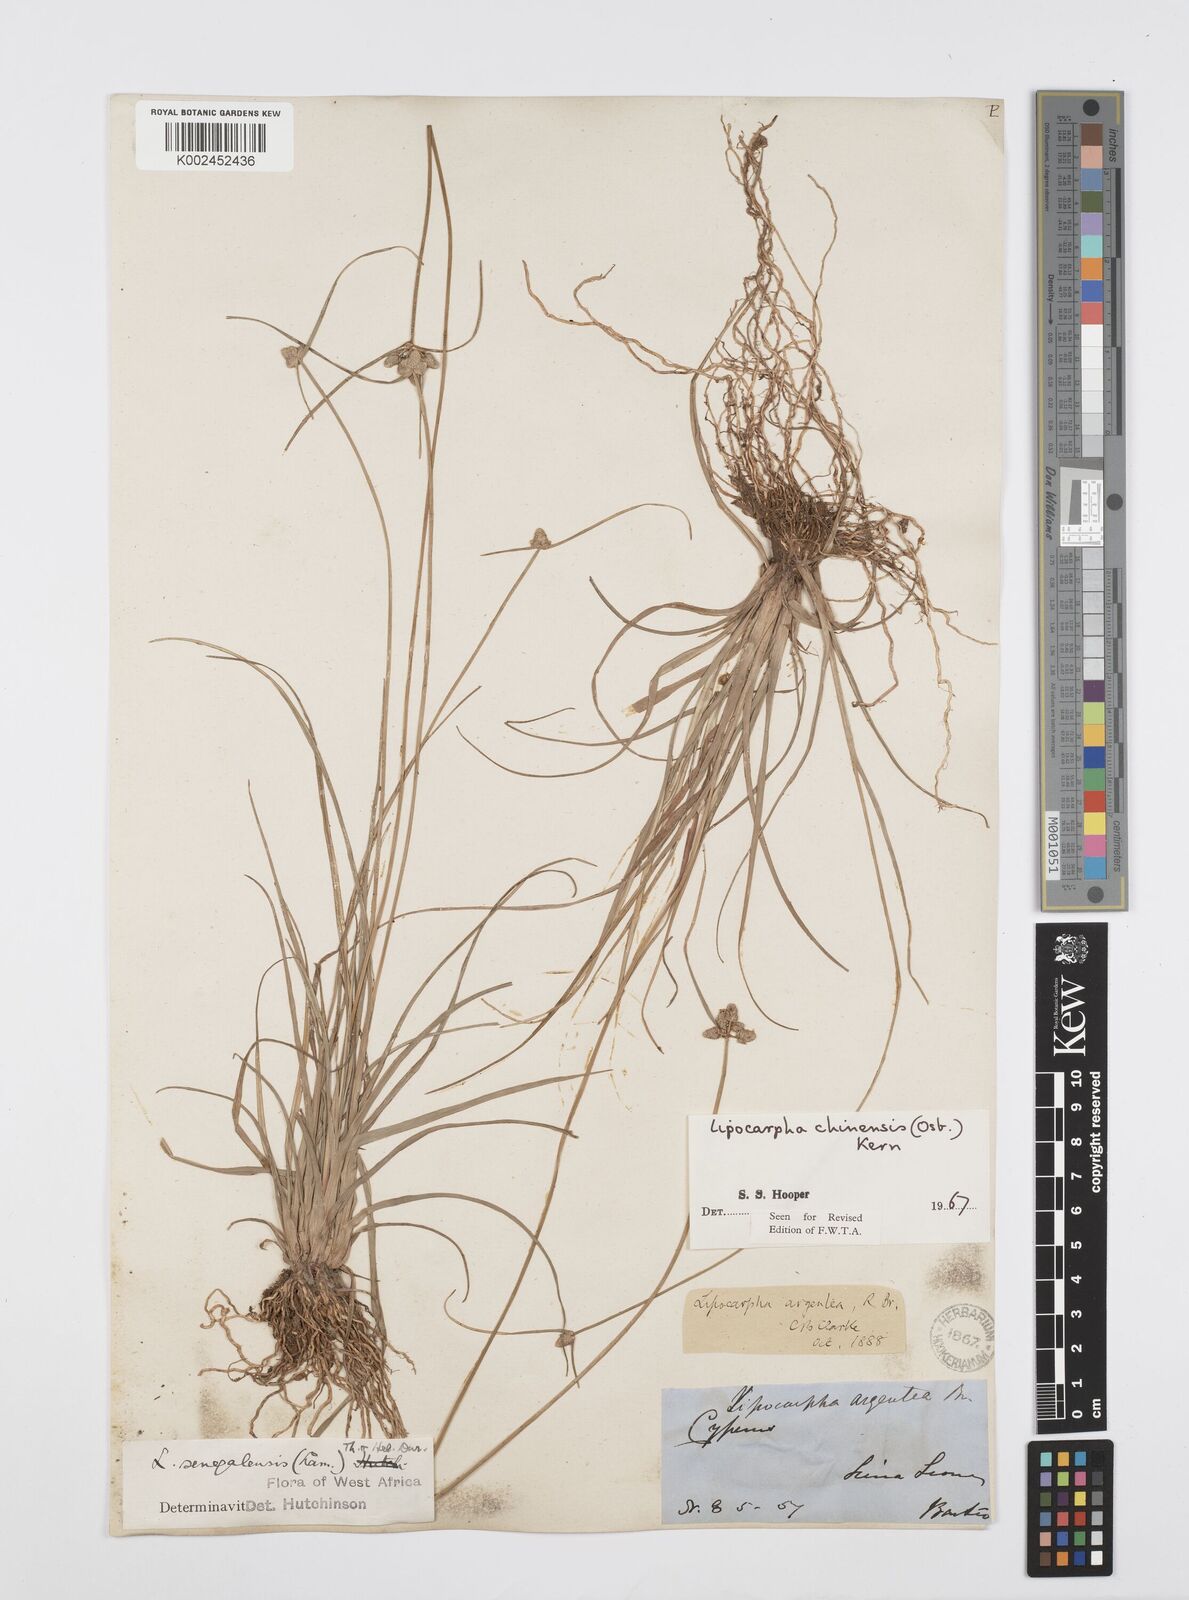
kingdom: Plantae
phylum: Tracheophyta
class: Liliopsida
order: Poales
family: Cyperaceae
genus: Cyperus
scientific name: Cyperus albescens
